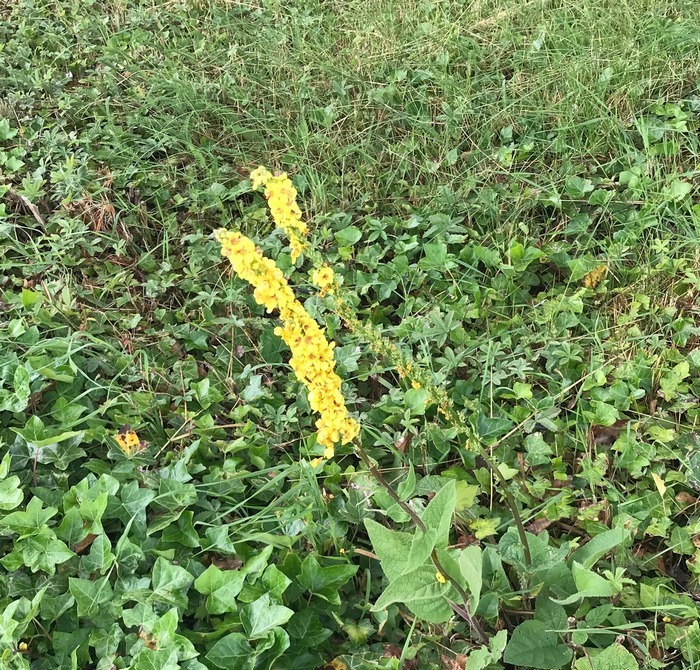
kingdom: Plantae
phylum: Tracheophyta
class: Magnoliopsida
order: Lamiales
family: Scrophulariaceae
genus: Verbascum
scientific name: Verbascum nigrum
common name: Mørk kongelys
